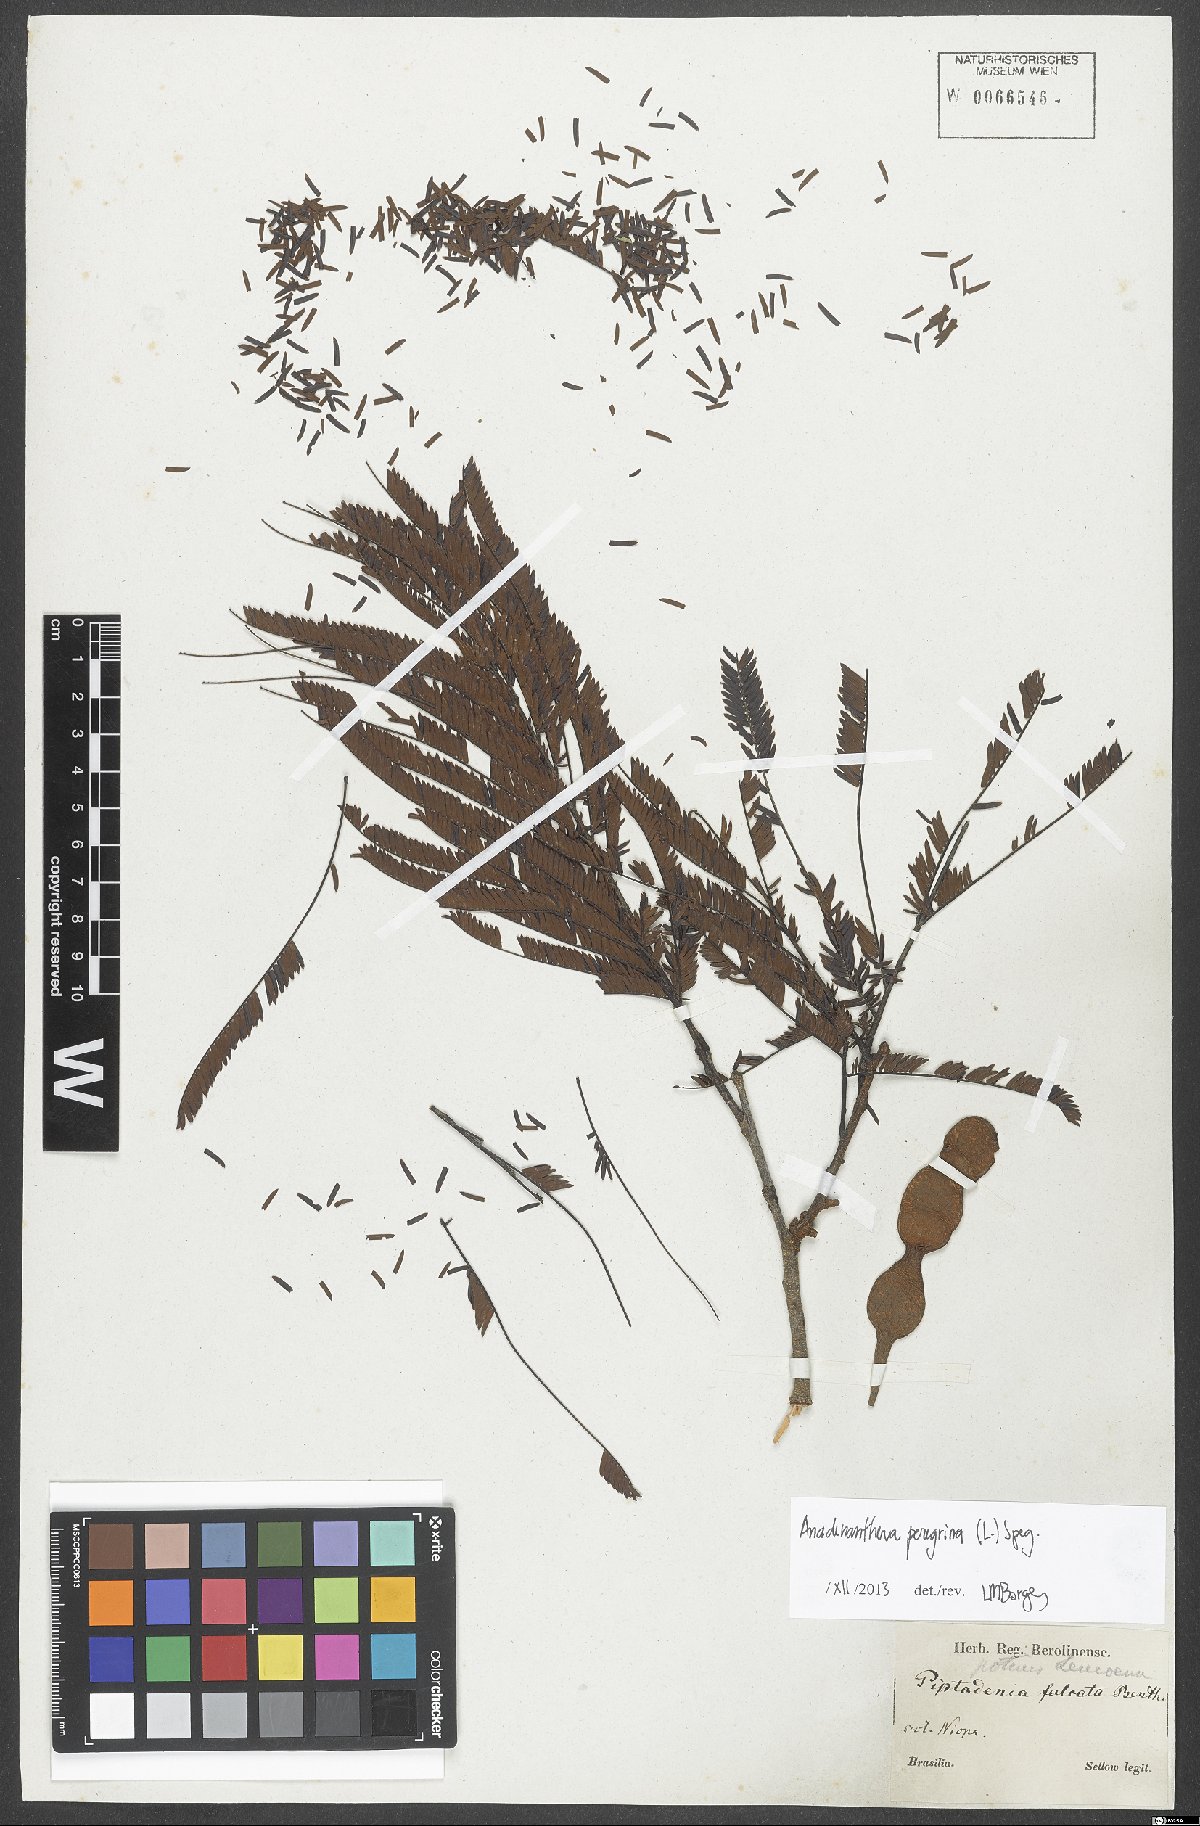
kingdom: Plantae
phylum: Tracheophyta
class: Magnoliopsida
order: Fabales
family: Fabaceae
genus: Anadenanthera
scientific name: Anadenanthera peregrina
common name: Cohoba
